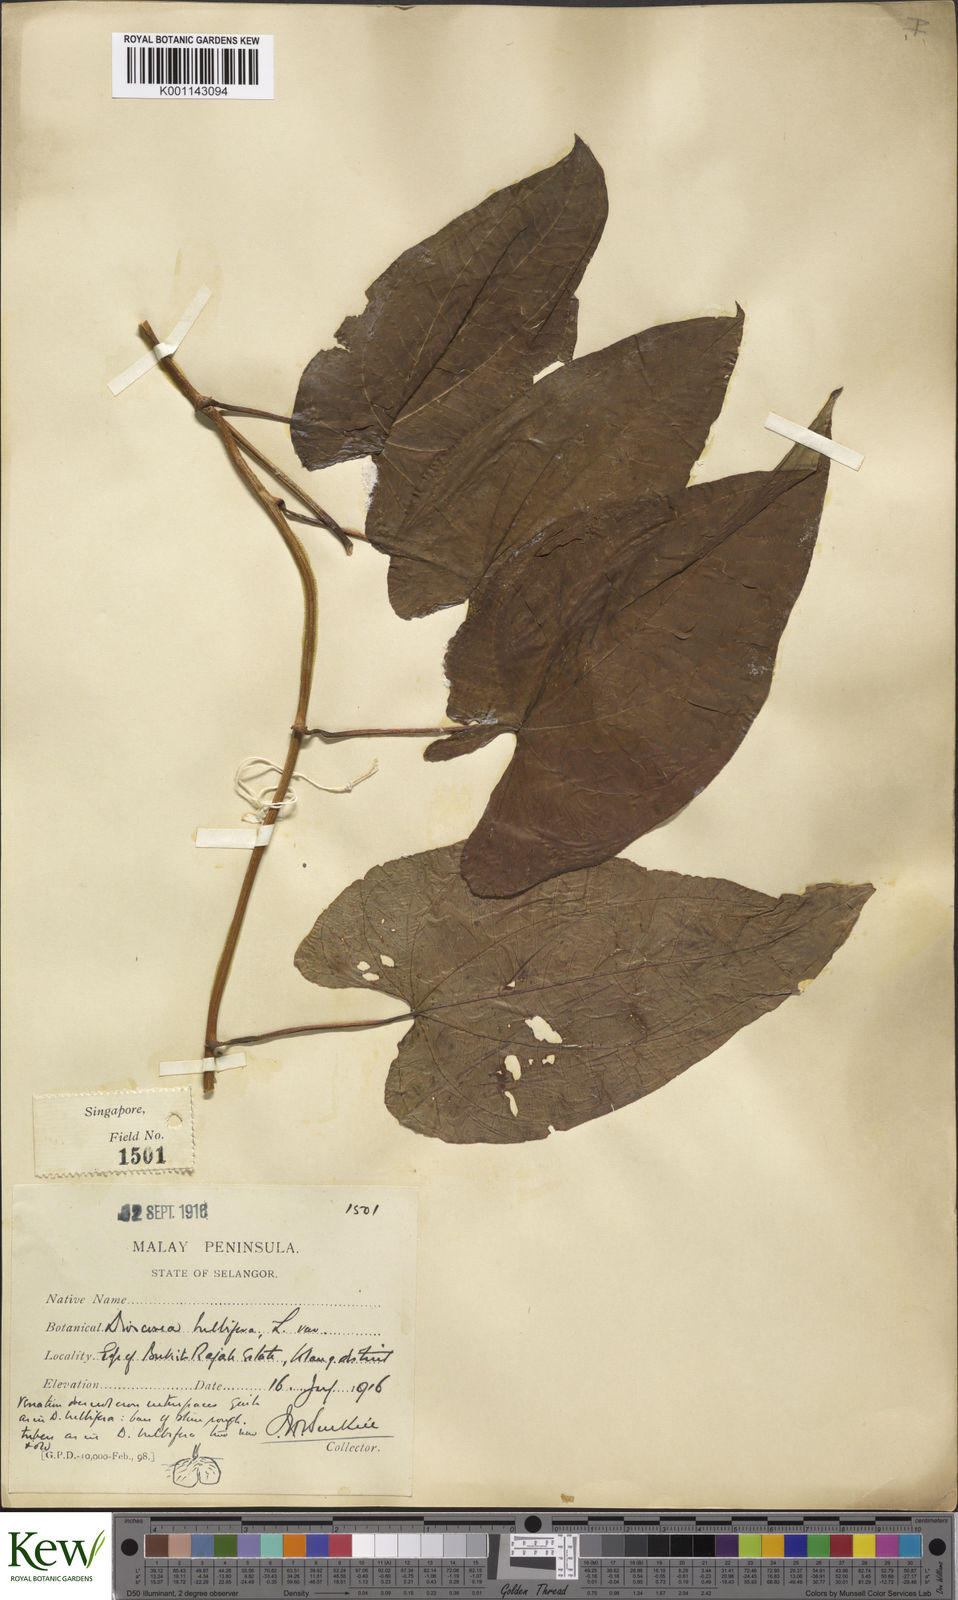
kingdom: Plantae
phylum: Tracheophyta
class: Liliopsida
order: Dioscoreales
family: Dioscoreaceae
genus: Dioscorea
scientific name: Dioscorea bulbifera
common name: Air yam
